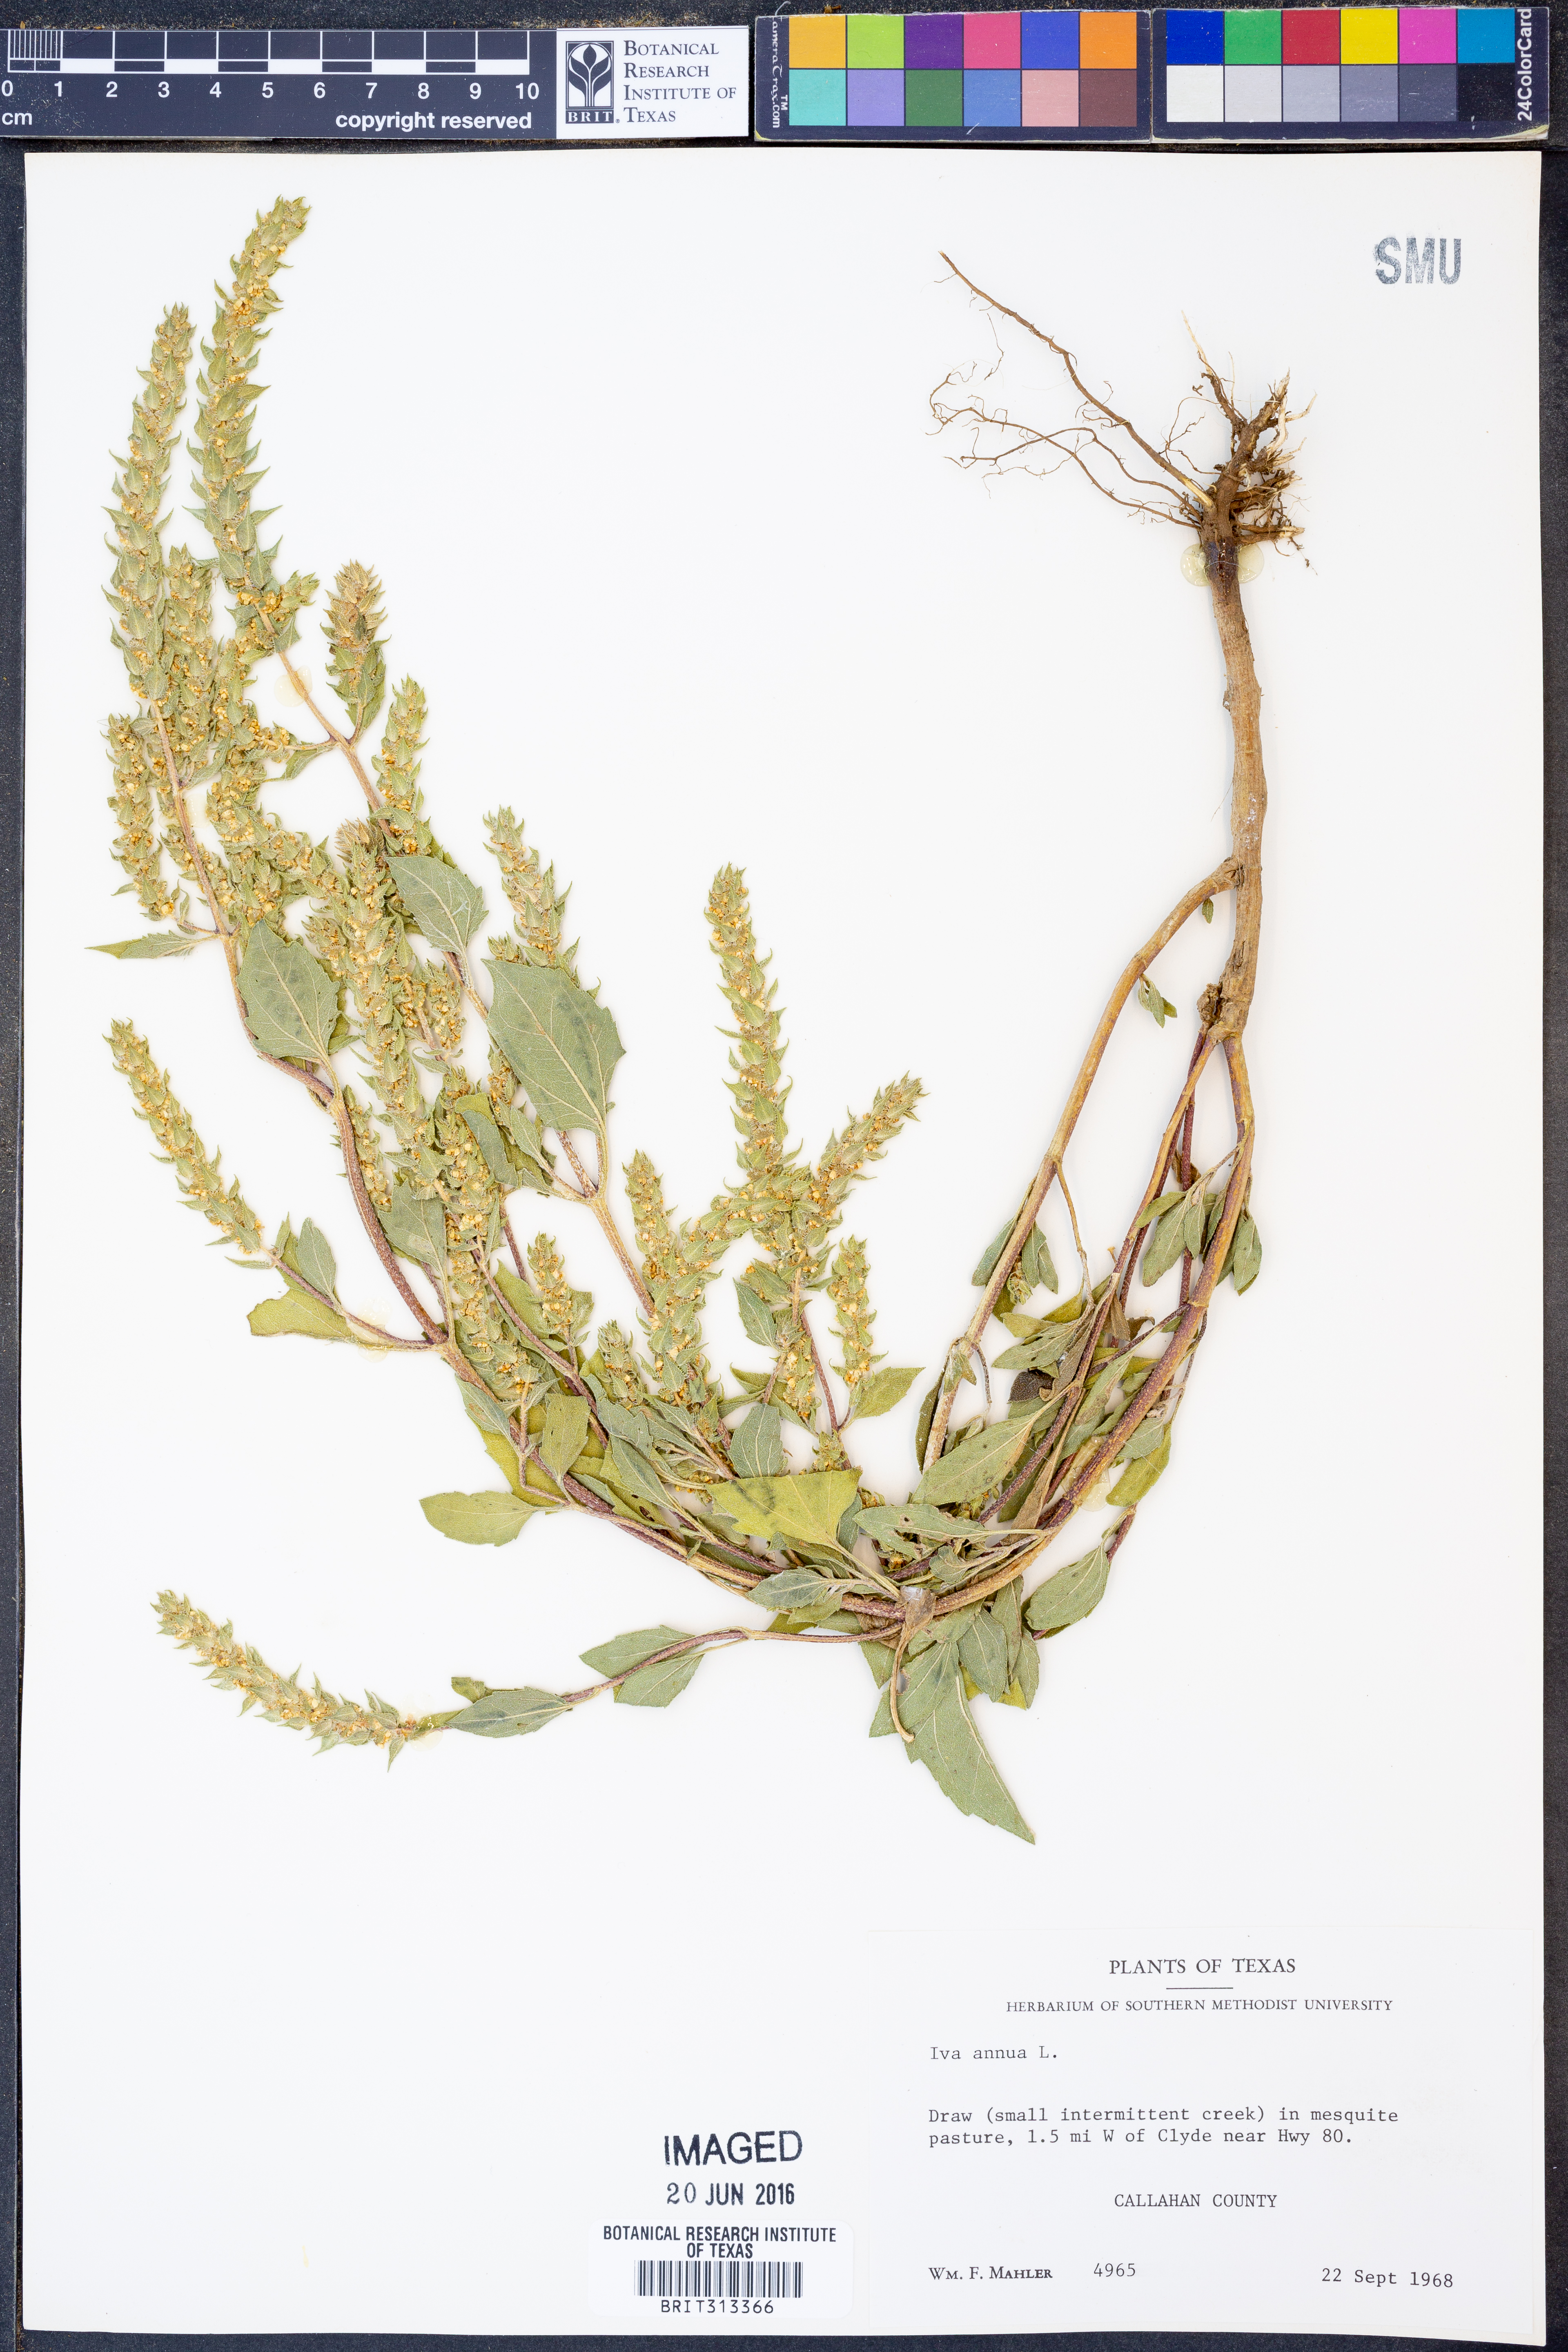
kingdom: Plantae
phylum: Tracheophyta
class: Magnoliopsida
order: Asterales
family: Asteraceae
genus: Iva
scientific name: Iva annua
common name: Marsh-elder
